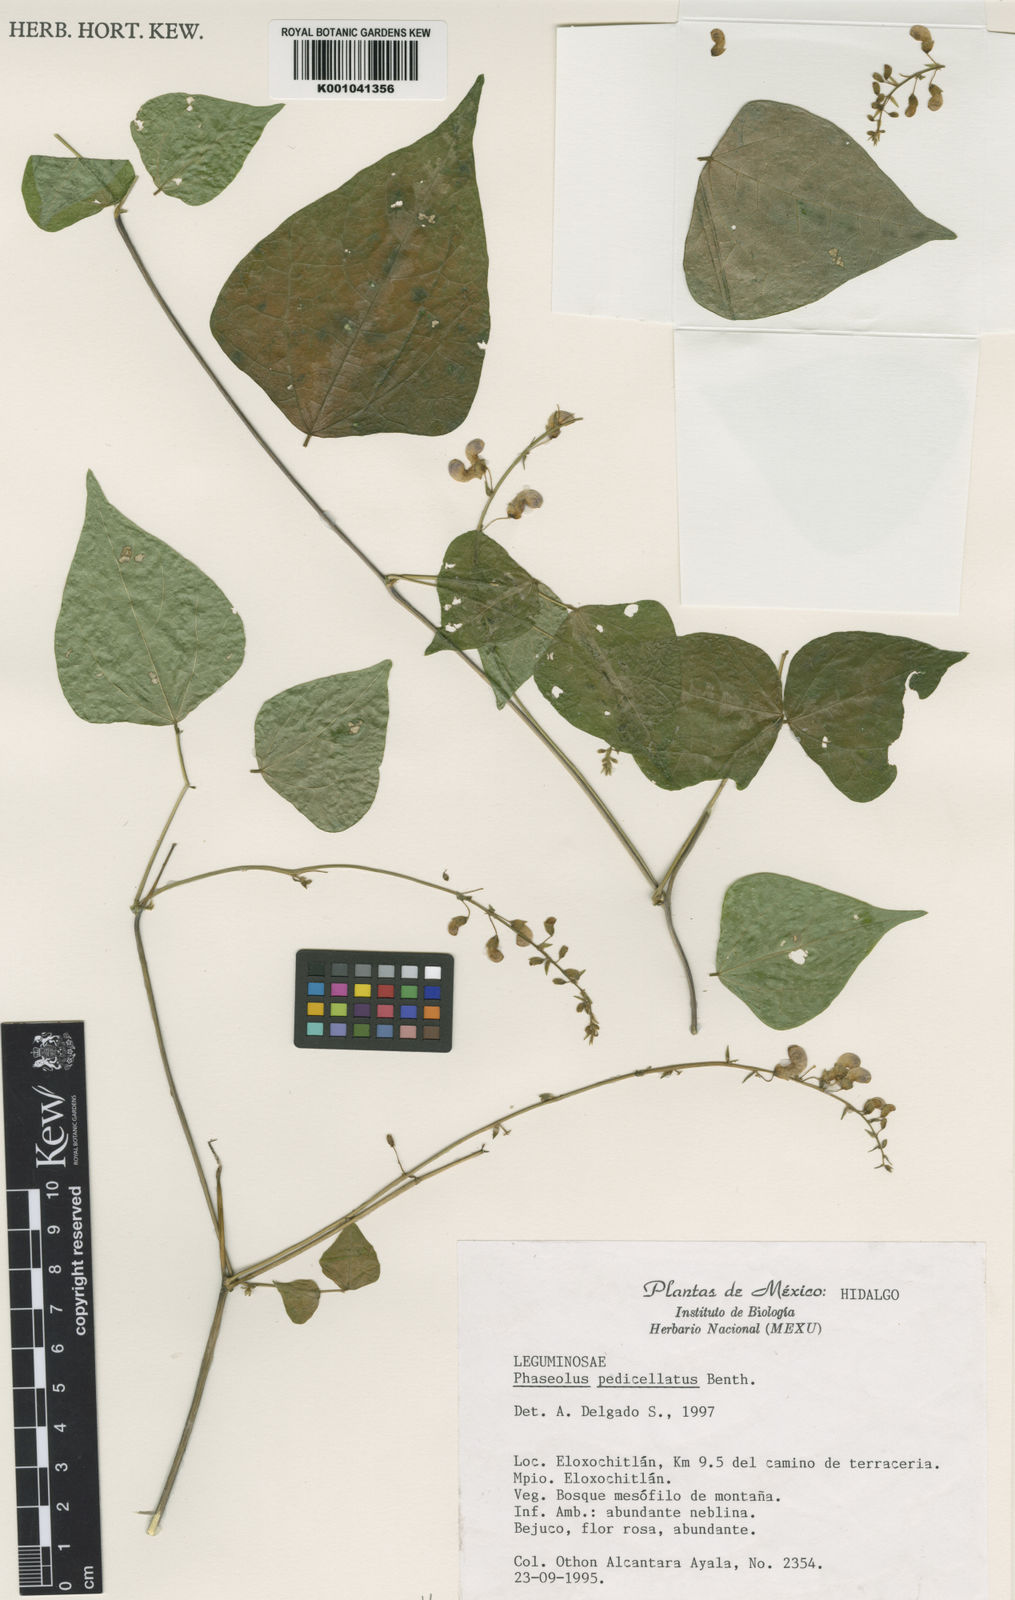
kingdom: Plantae
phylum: Tracheophyta
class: Magnoliopsida
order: Fabales
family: Fabaceae
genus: Phaseolus
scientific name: Phaseolus pedicellatus
